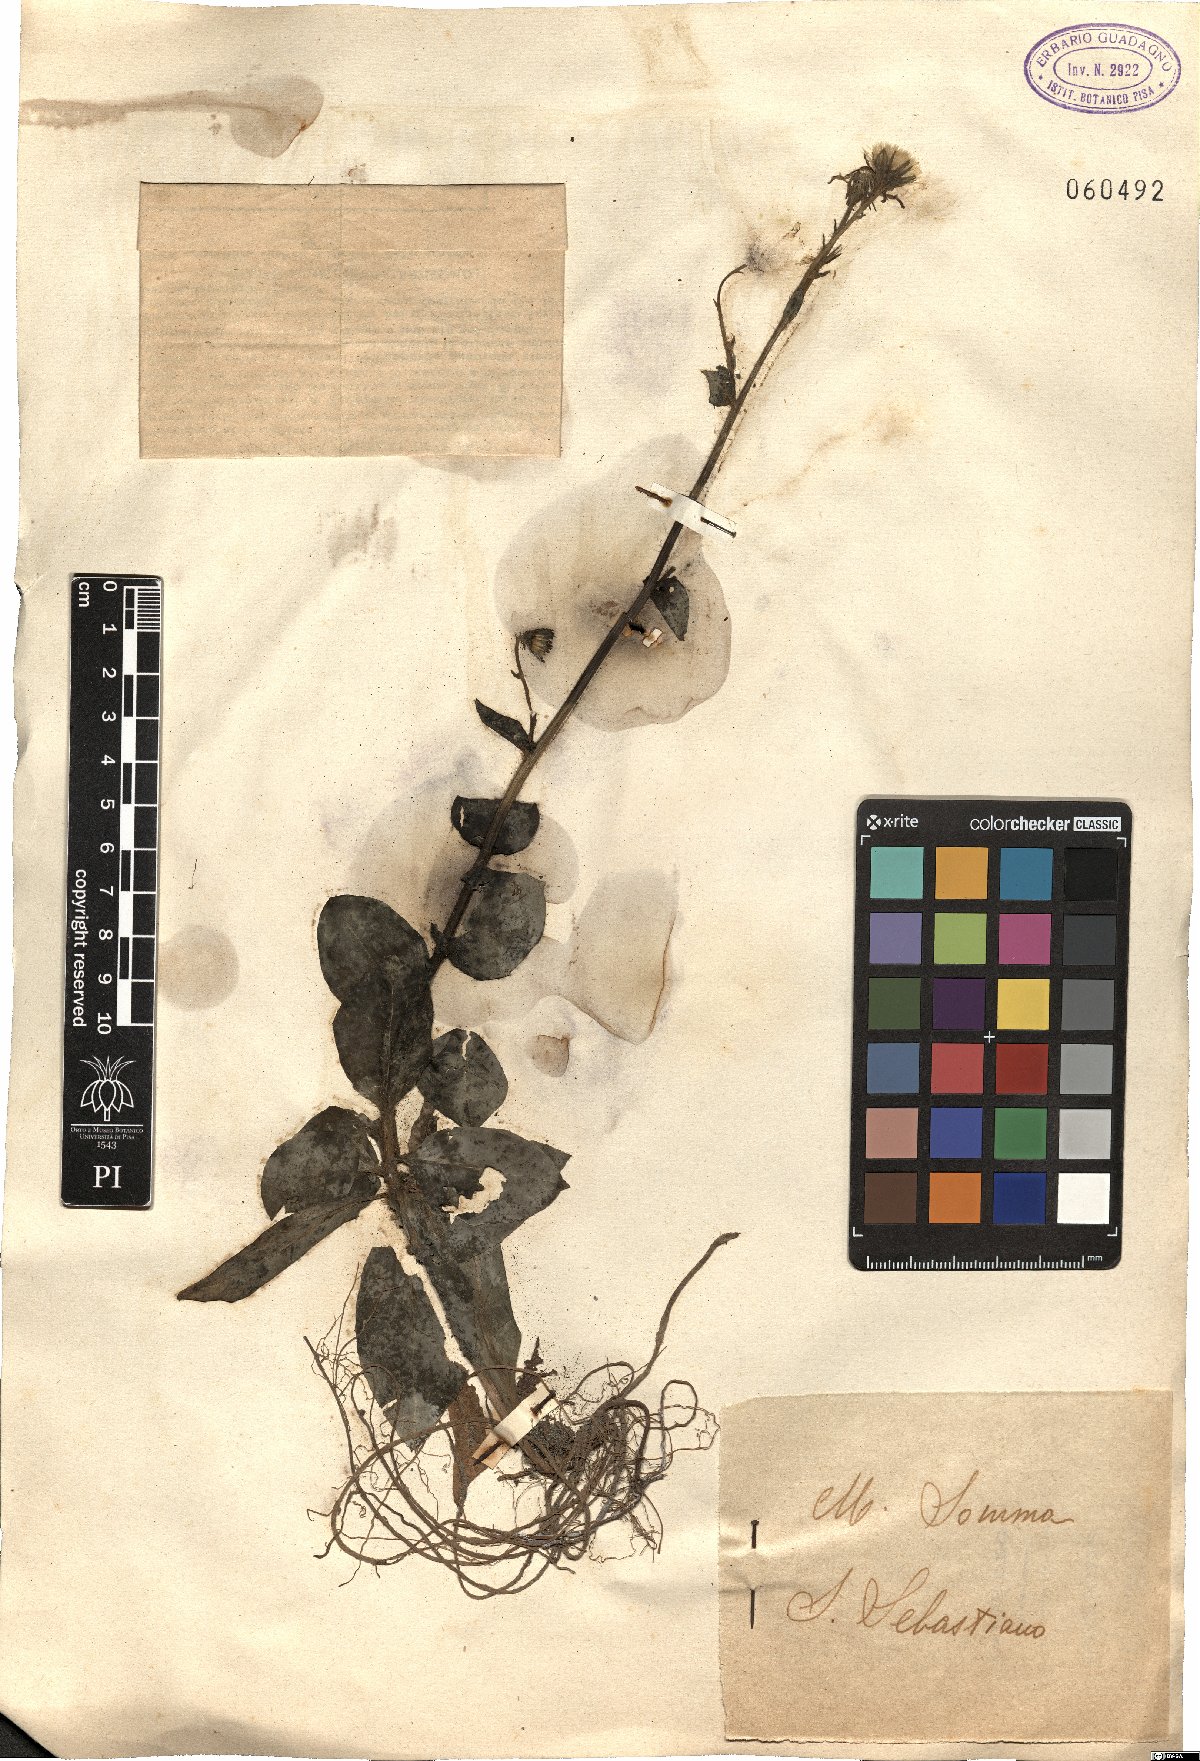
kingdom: Plantae
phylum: Tracheophyta
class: Magnoliopsida
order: Asterales
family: Asteraceae
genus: Hieracium
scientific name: Hieracium
